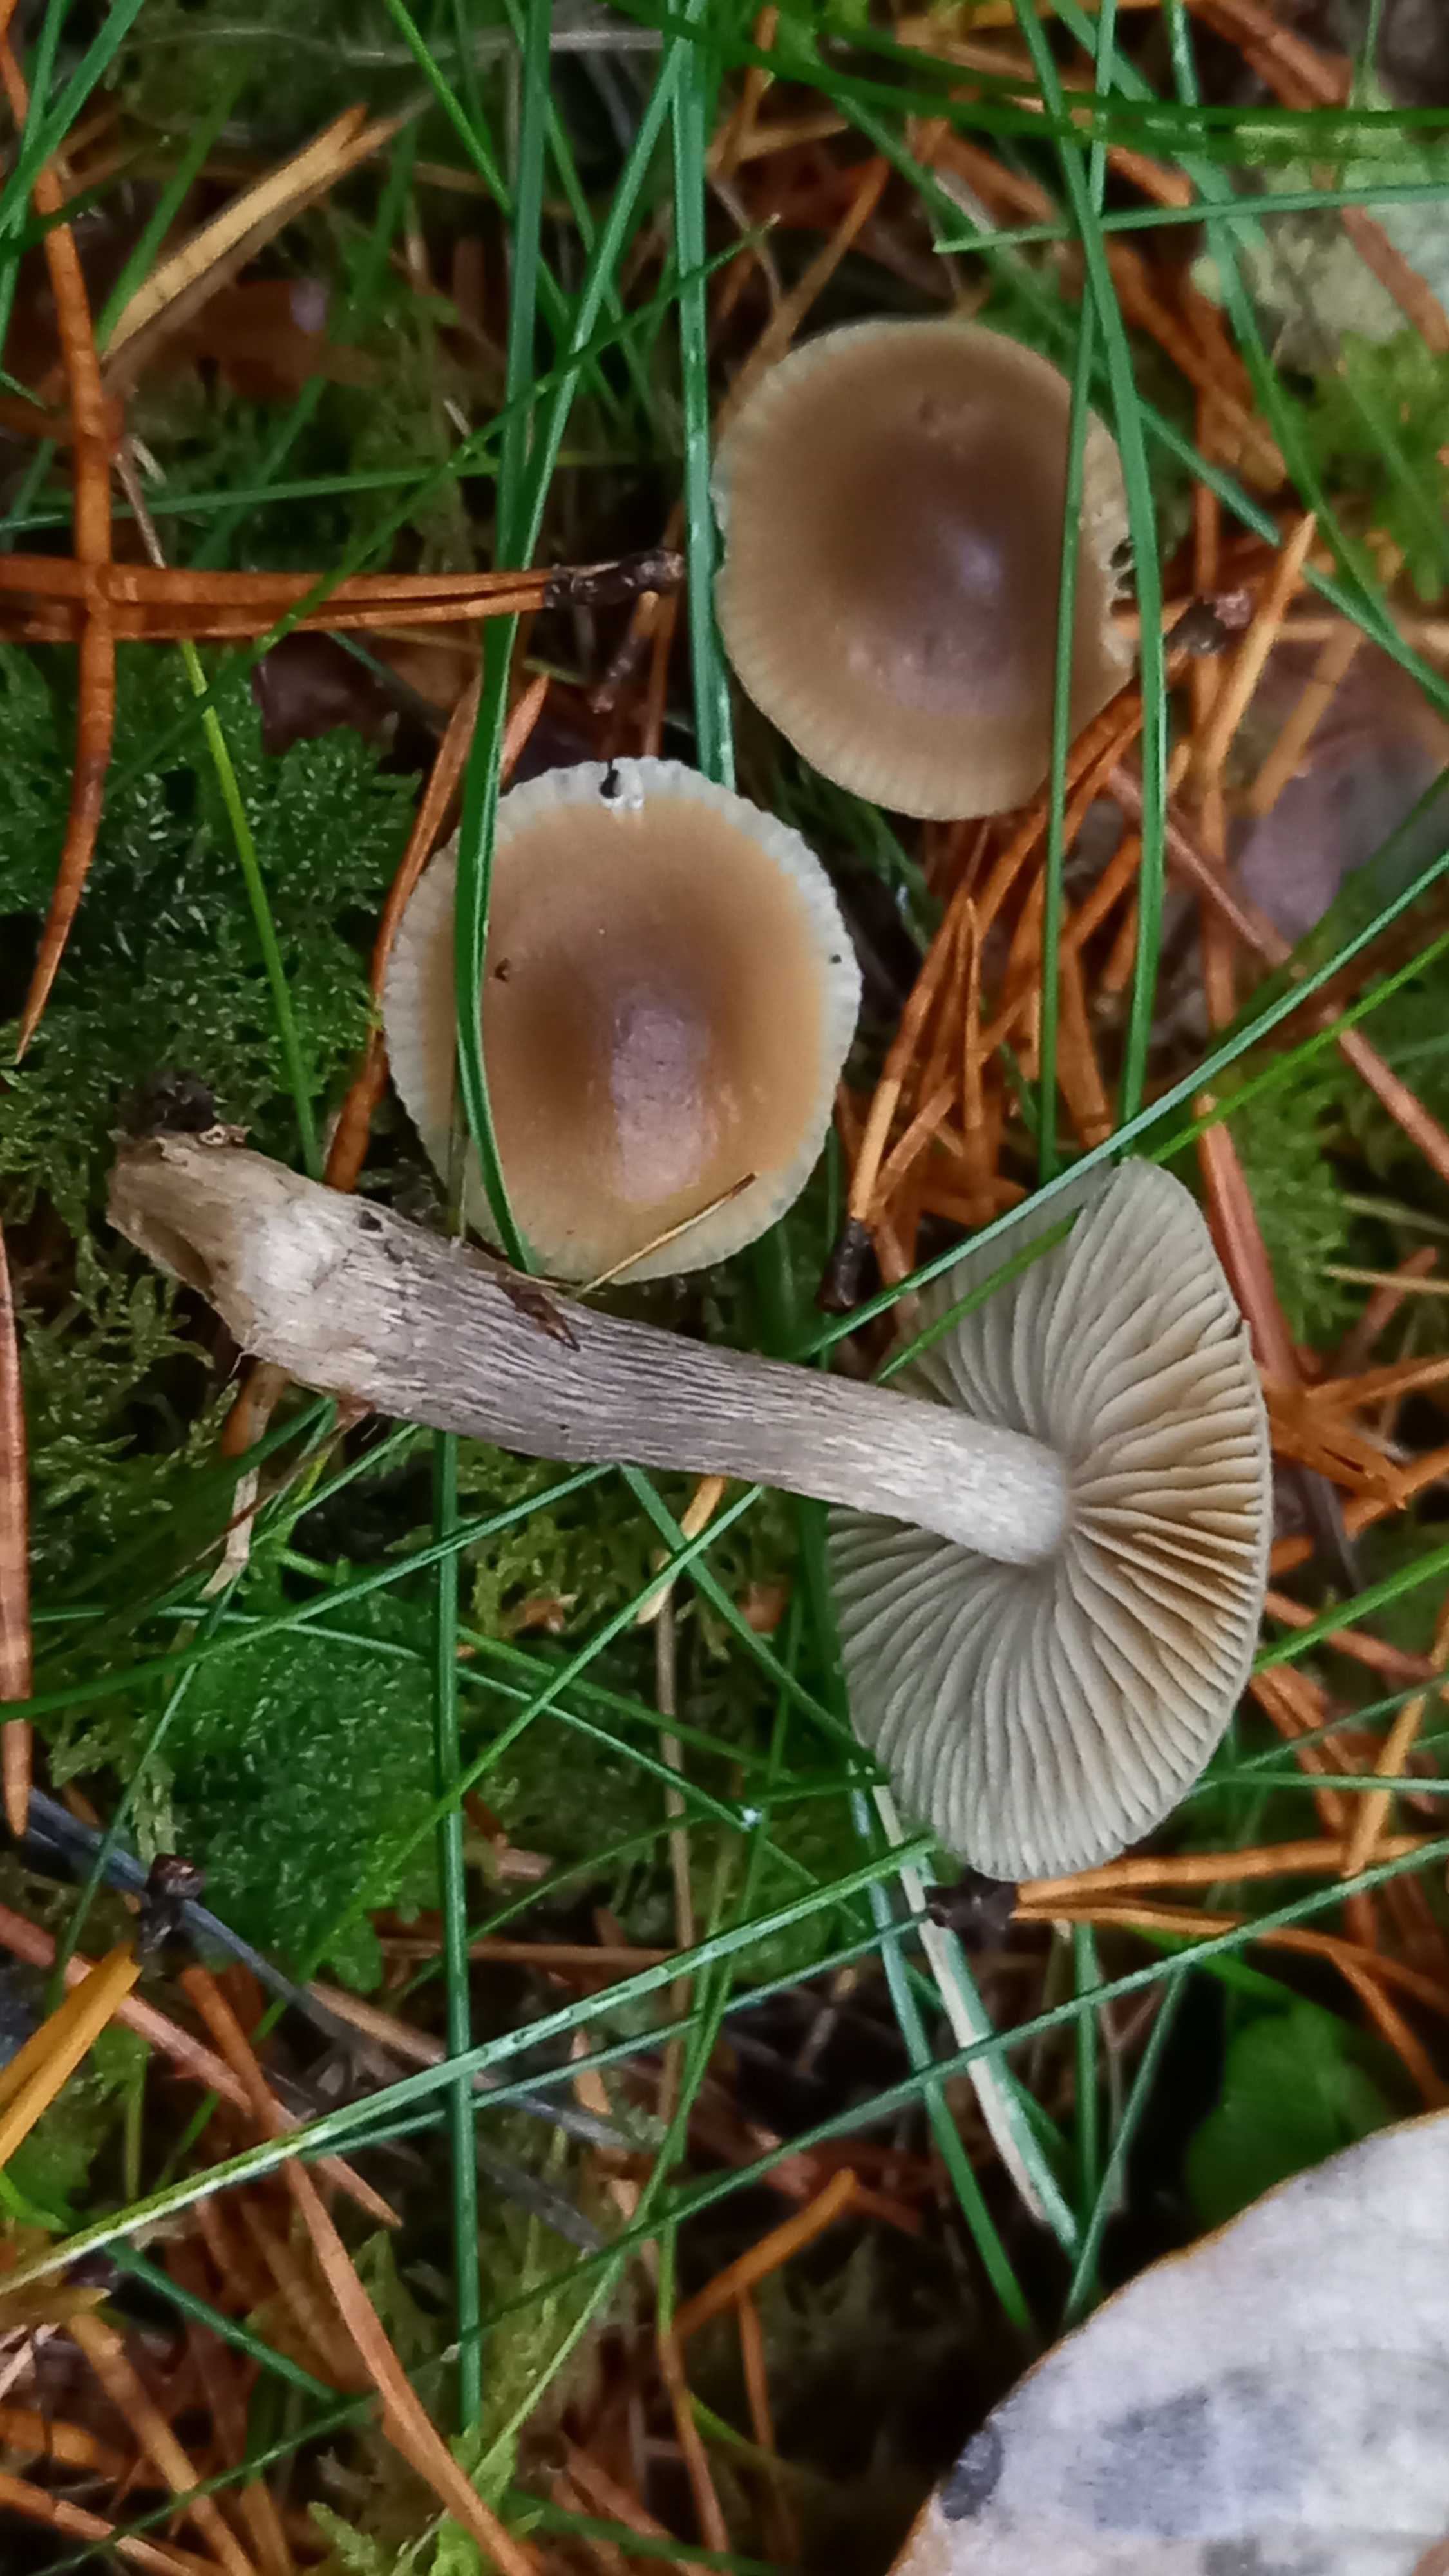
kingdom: Fungi
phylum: Basidiomycota
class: Agaricomycetes
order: Agaricales
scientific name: Agaricales
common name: champignonordenen
